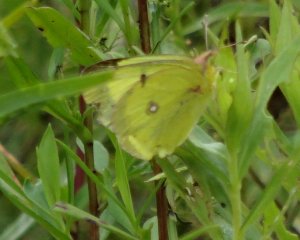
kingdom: Animalia
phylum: Arthropoda
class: Insecta
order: Lepidoptera
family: Pieridae
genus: Colias
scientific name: Colias philodice
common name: Clouded Sulphur
